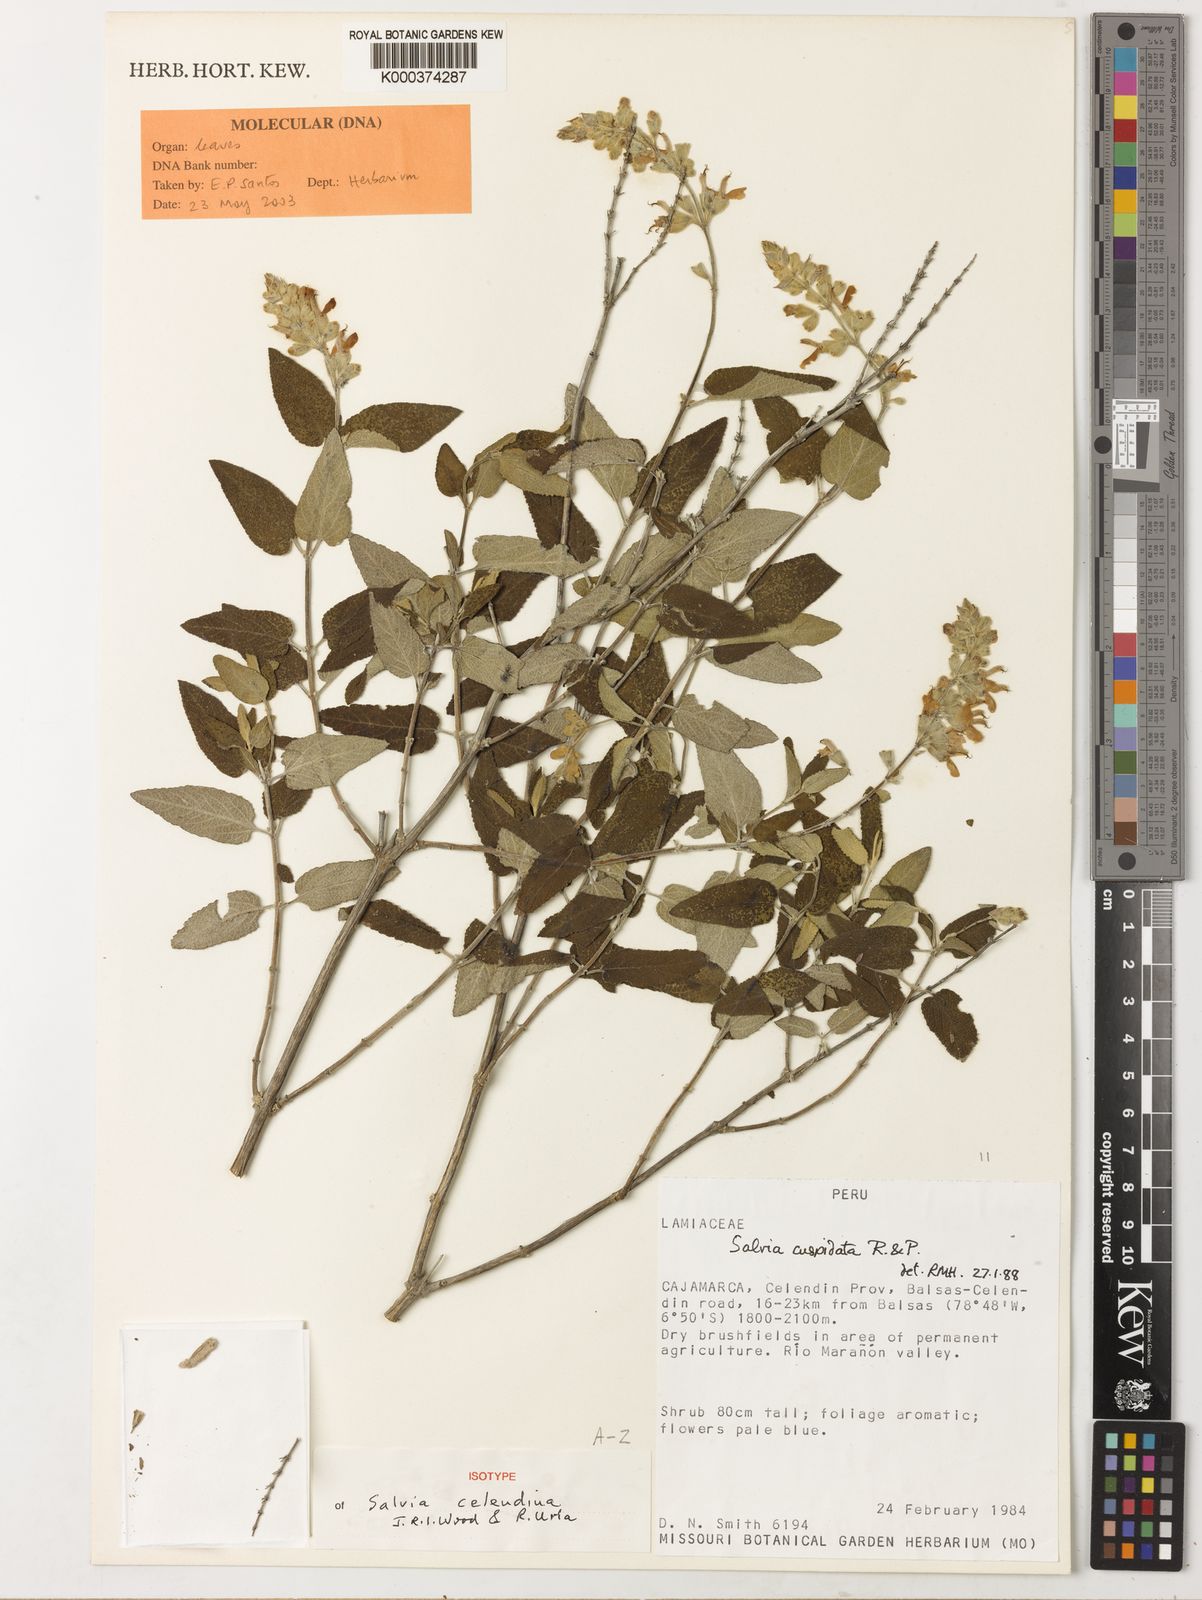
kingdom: Plantae
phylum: Tracheophyta
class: Magnoliopsida
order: Lamiales
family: Lamiaceae
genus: Salvia
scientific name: Salvia
